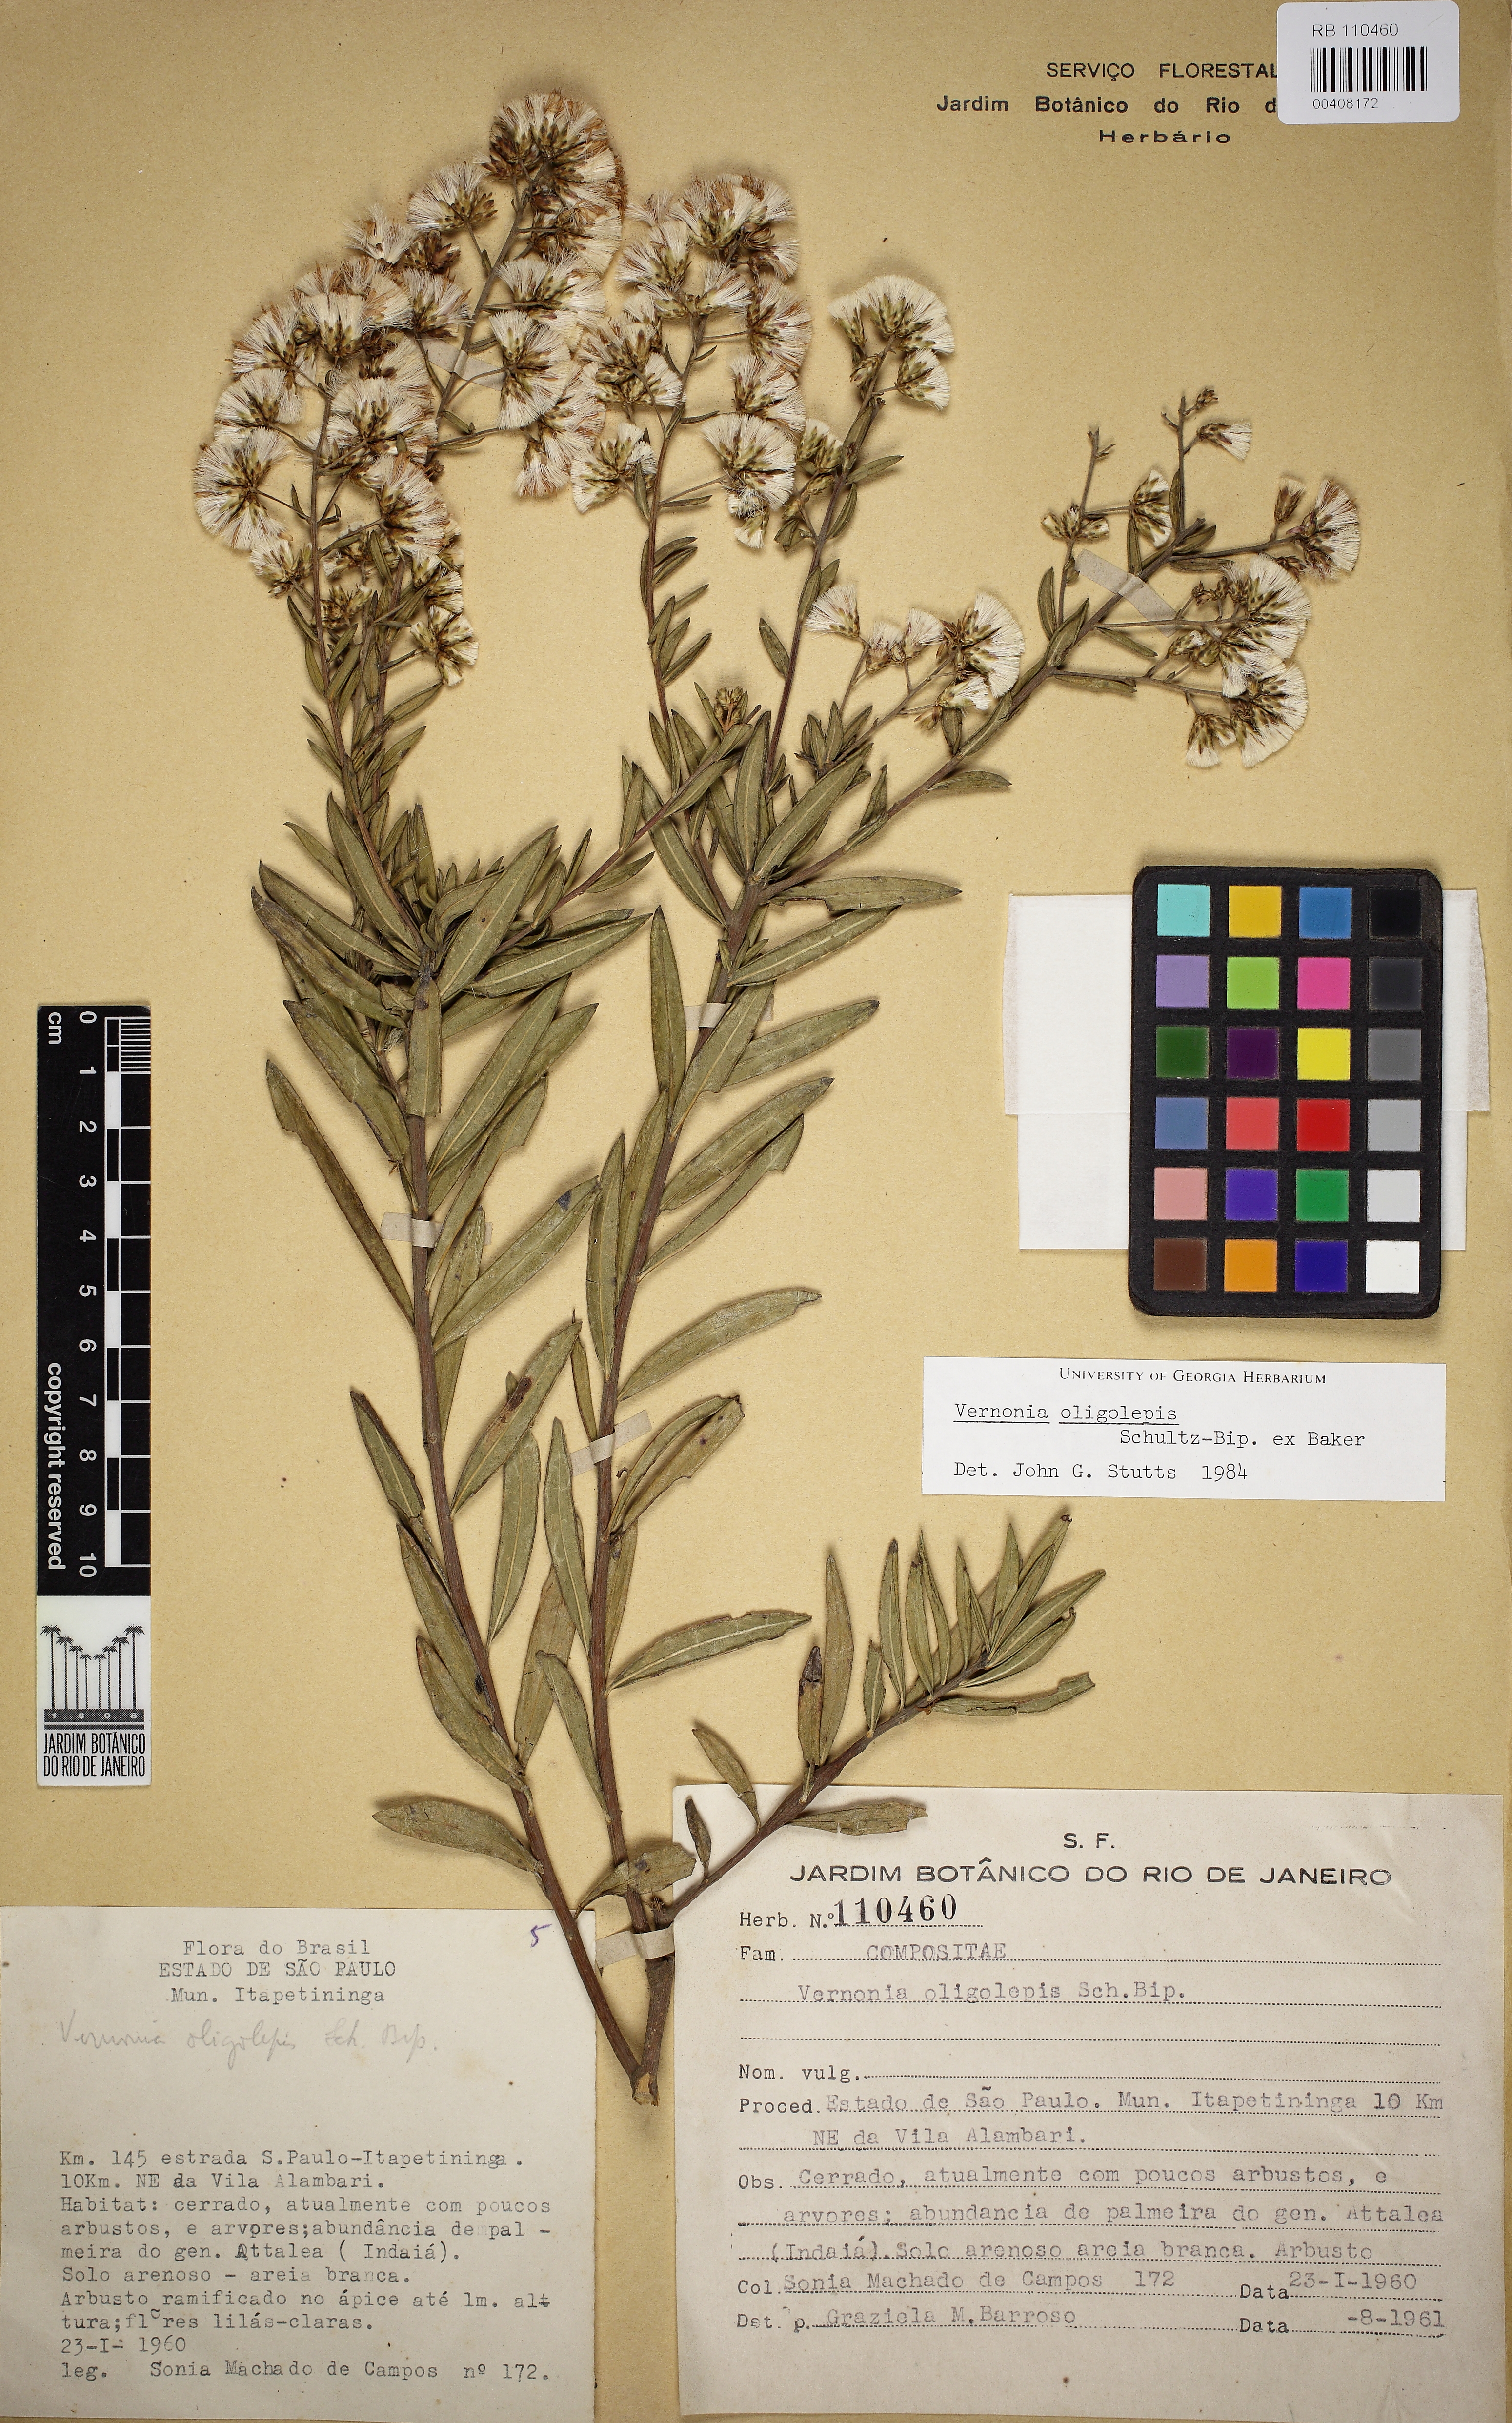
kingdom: Plantae
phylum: Tracheophyta
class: Magnoliopsida
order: Asterales
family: Asteraceae
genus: Vernonanthura
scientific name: Vernonanthura oligolepis
